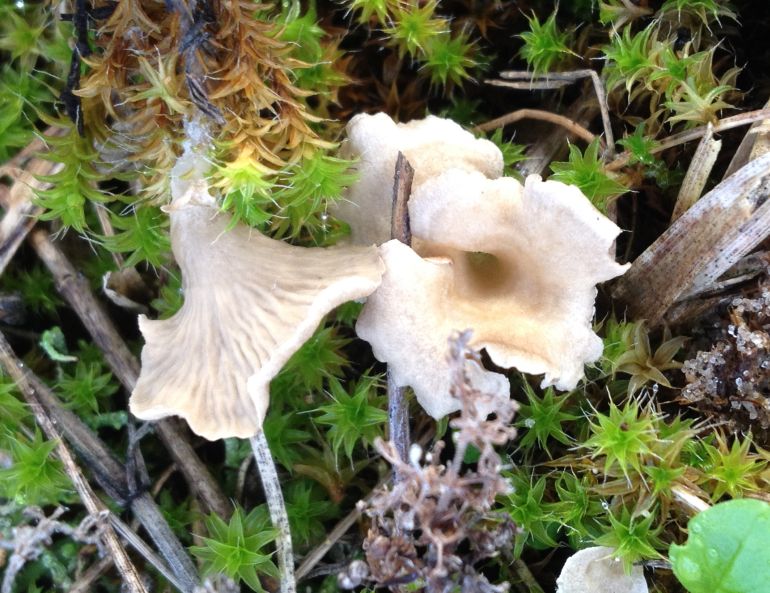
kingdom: Fungi
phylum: Basidiomycota
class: Agaricomycetes
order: Agaricales
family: Hygrophoraceae
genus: Arrhenia
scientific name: Arrhenia spathulata
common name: skæv fontænehat
